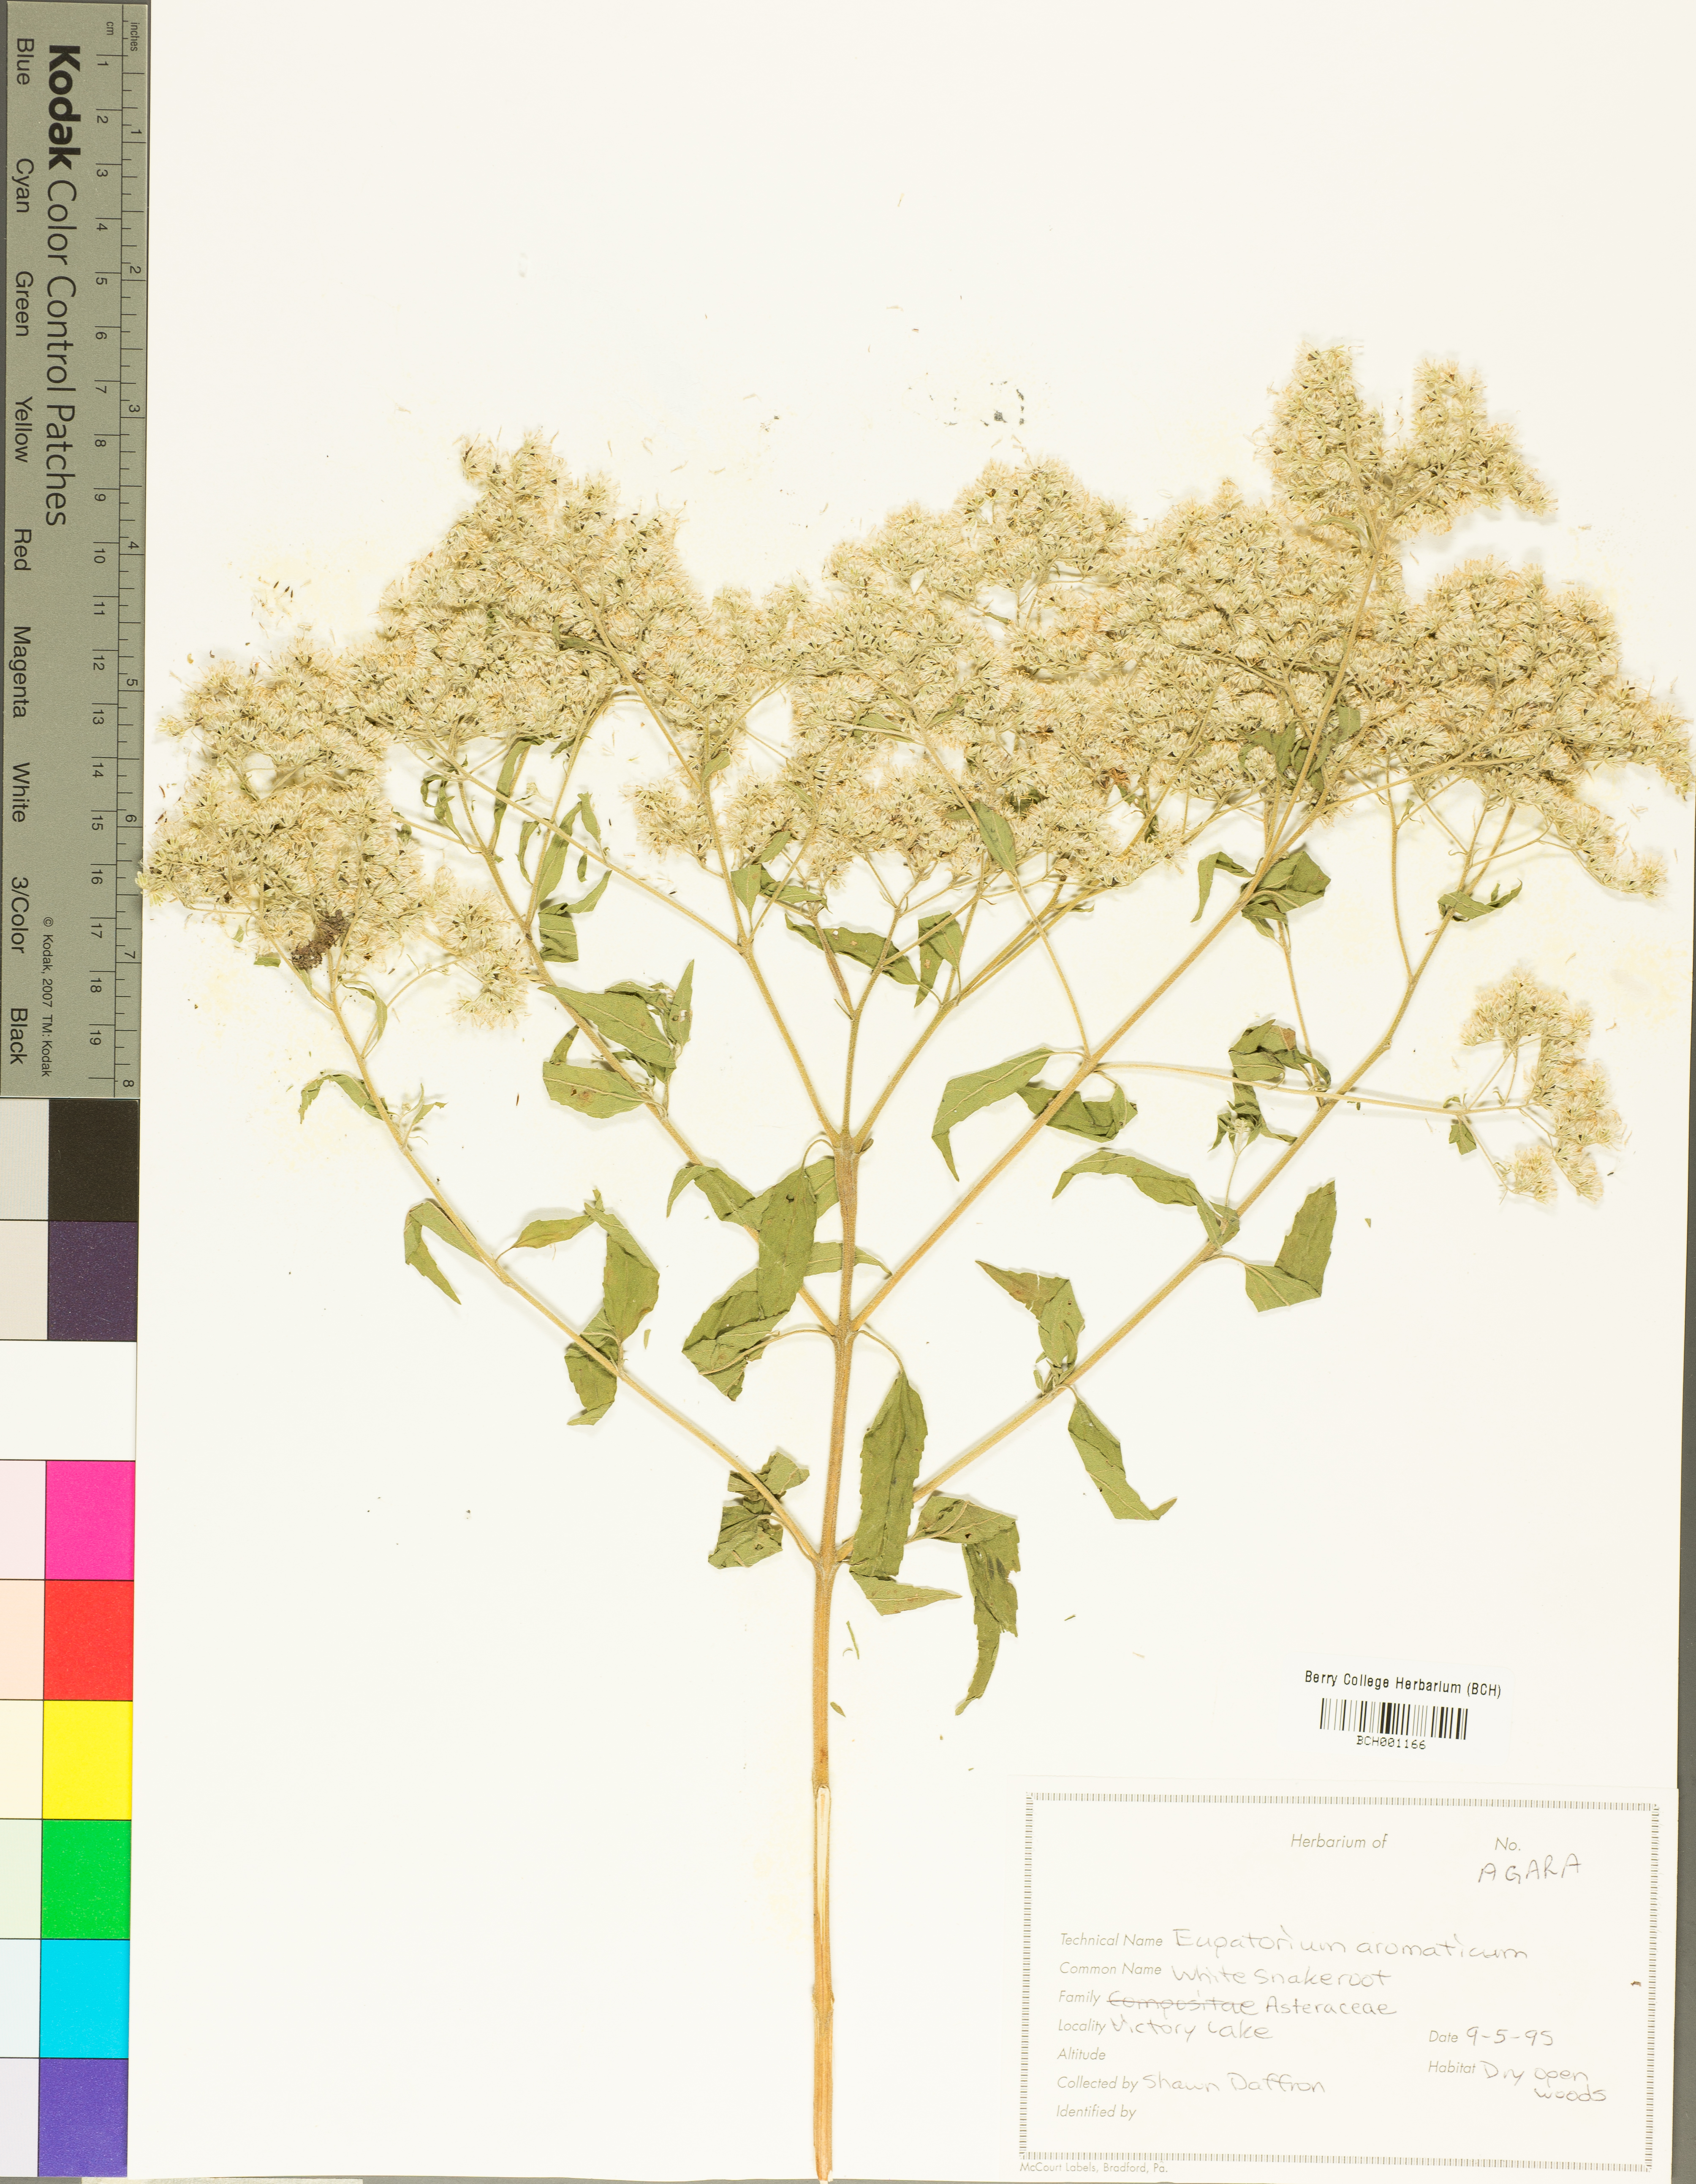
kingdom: Plantae
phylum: Tracheophyta
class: Magnoliopsida
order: Asterales
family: Asteraceae
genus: Ageratina
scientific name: Ageratina aromatica
